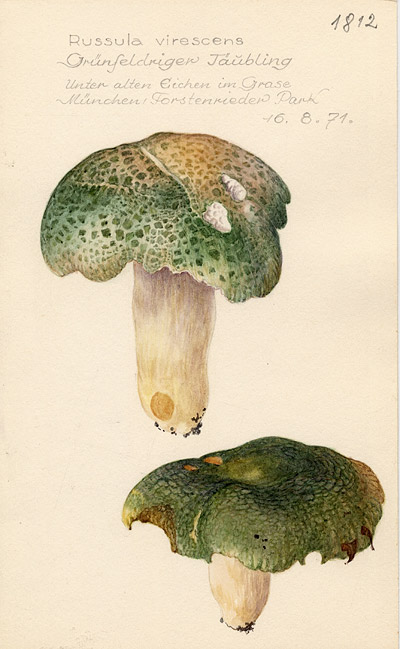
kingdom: Fungi
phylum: Basidiomycota
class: Agaricomycetes
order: Russulales
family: Russulaceae
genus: Russula
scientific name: Russula virescens
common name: Greencracked brittlegill
